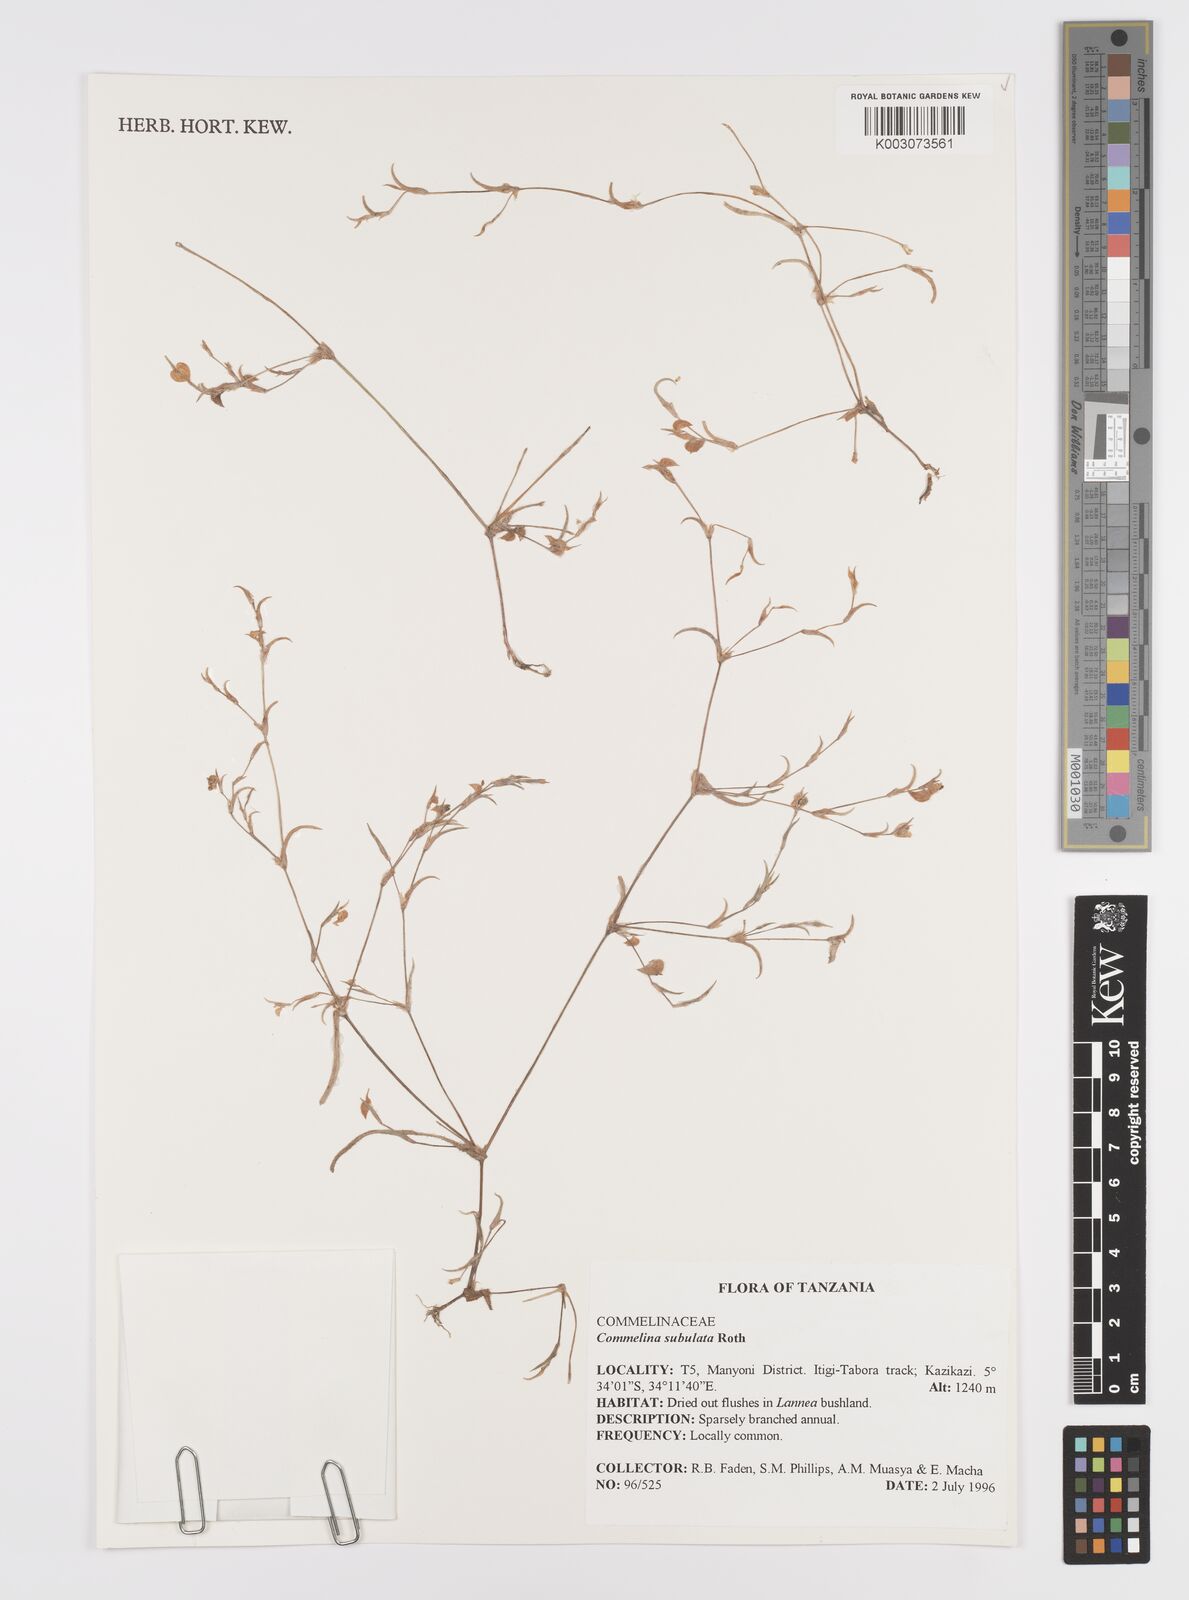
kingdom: Plantae
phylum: Tracheophyta
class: Liliopsida
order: Commelinales
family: Commelinaceae
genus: Commelina
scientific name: Commelina subulata
